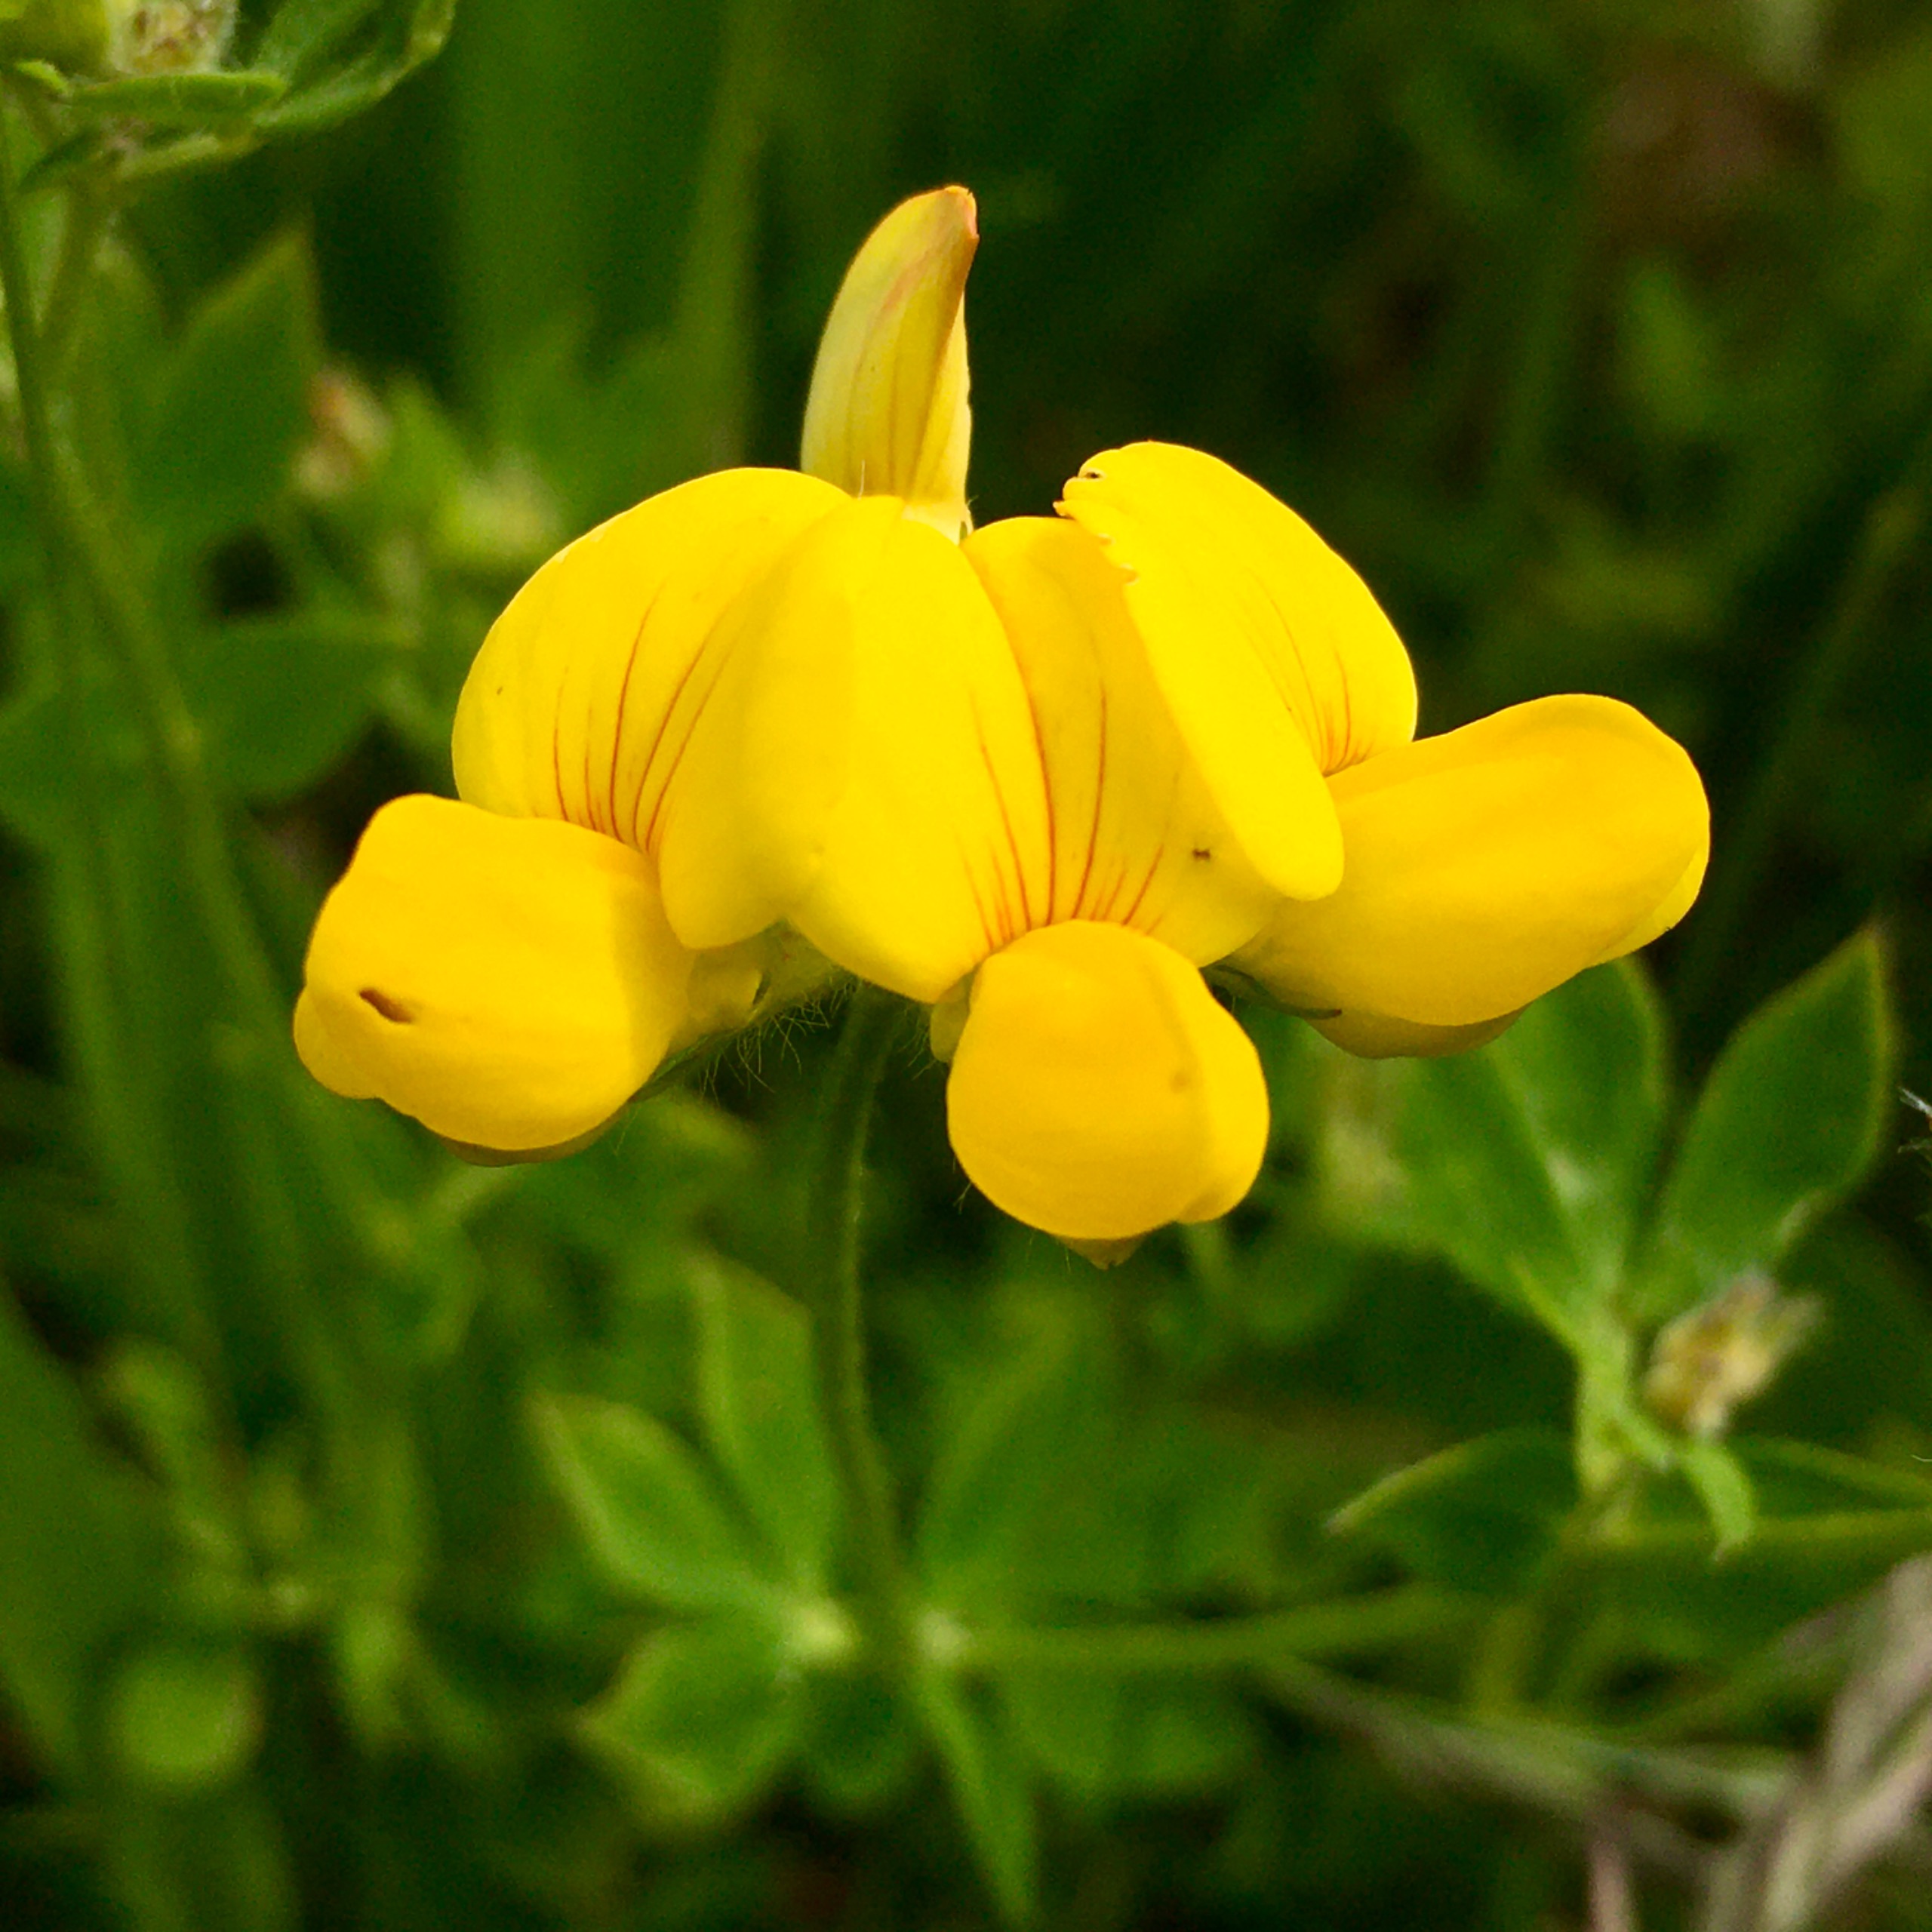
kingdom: Plantae
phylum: Tracheophyta
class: Magnoliopsida
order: Fabales
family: Fabaceae
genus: Lotus
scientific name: Lotus corniculatus
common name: Almindelig kællingetand
